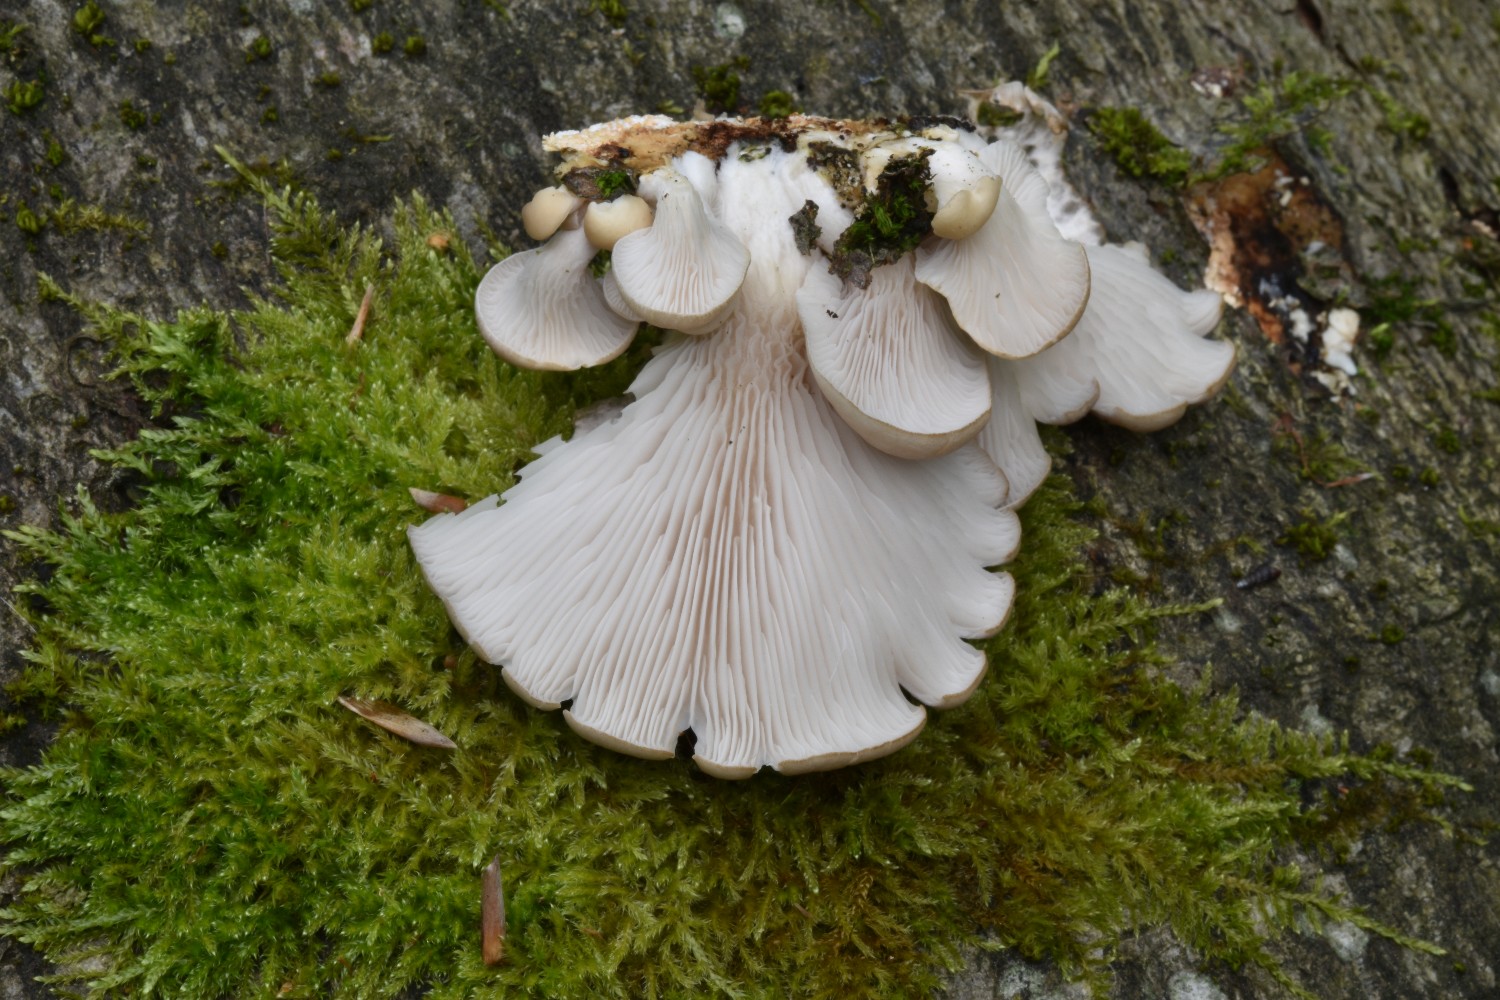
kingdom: Fungi
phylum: Basidiomycota
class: Agaricomycetes
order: Agaricales
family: Pleurotaceae
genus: Pleurotus
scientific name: Pleurotus pulmonarius
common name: sommer-østershat
